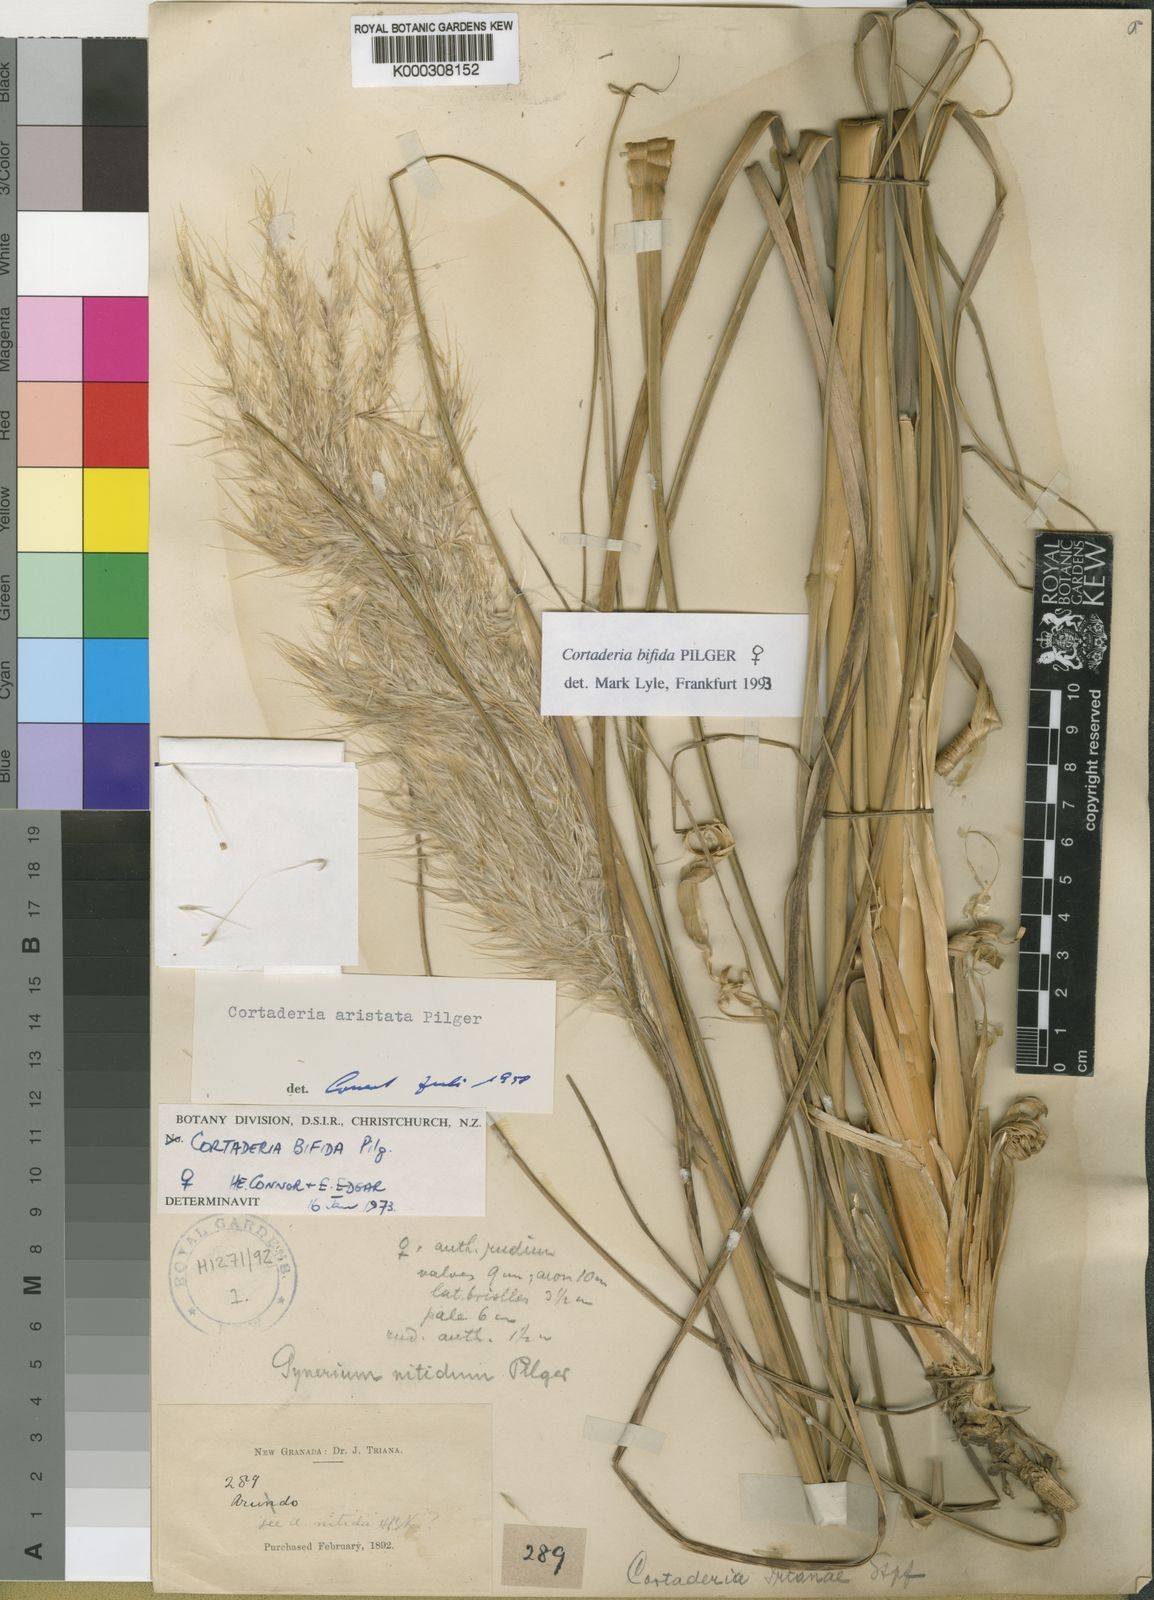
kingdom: Plantae
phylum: Tracheophyta
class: Liliopsida
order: Poales
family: Poaceae
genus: Cortaderia
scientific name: Cortaderia bifida
